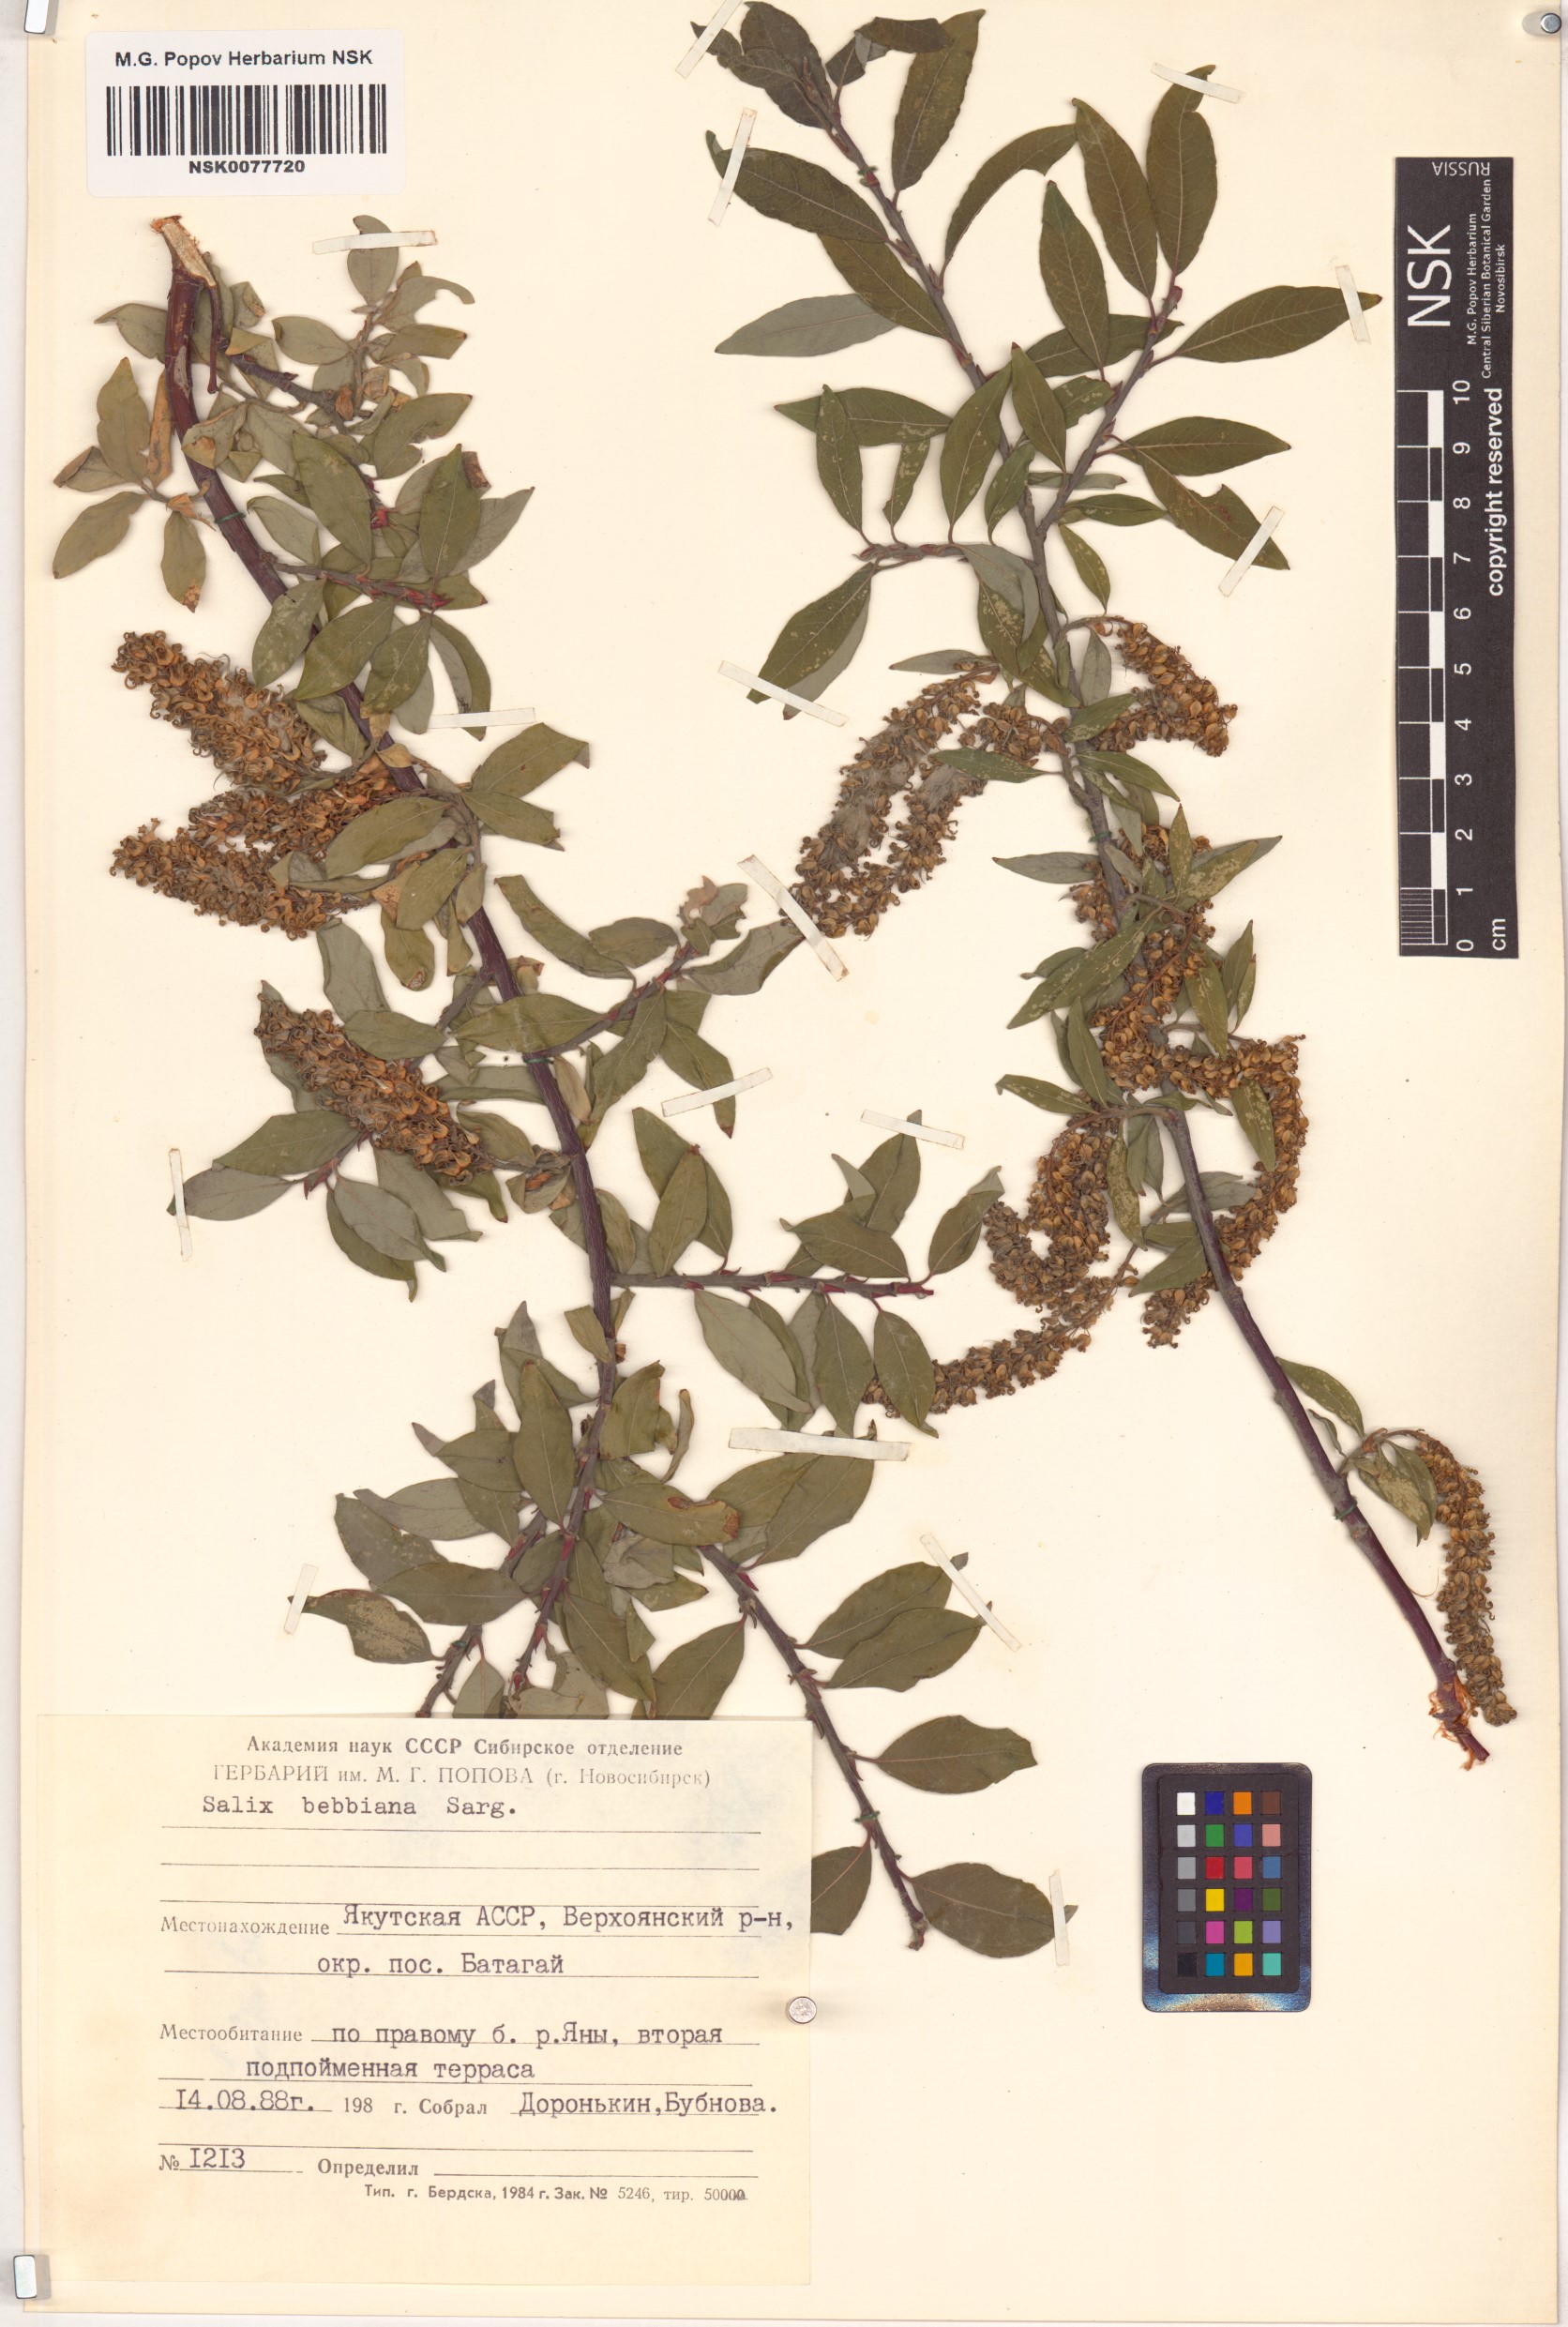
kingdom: Plantae
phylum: Tracheophyta
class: Magnoliopsida
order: Malpighiales
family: Salicaceae
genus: Salix
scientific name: Salix bebbiana
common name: Bebb's willow
